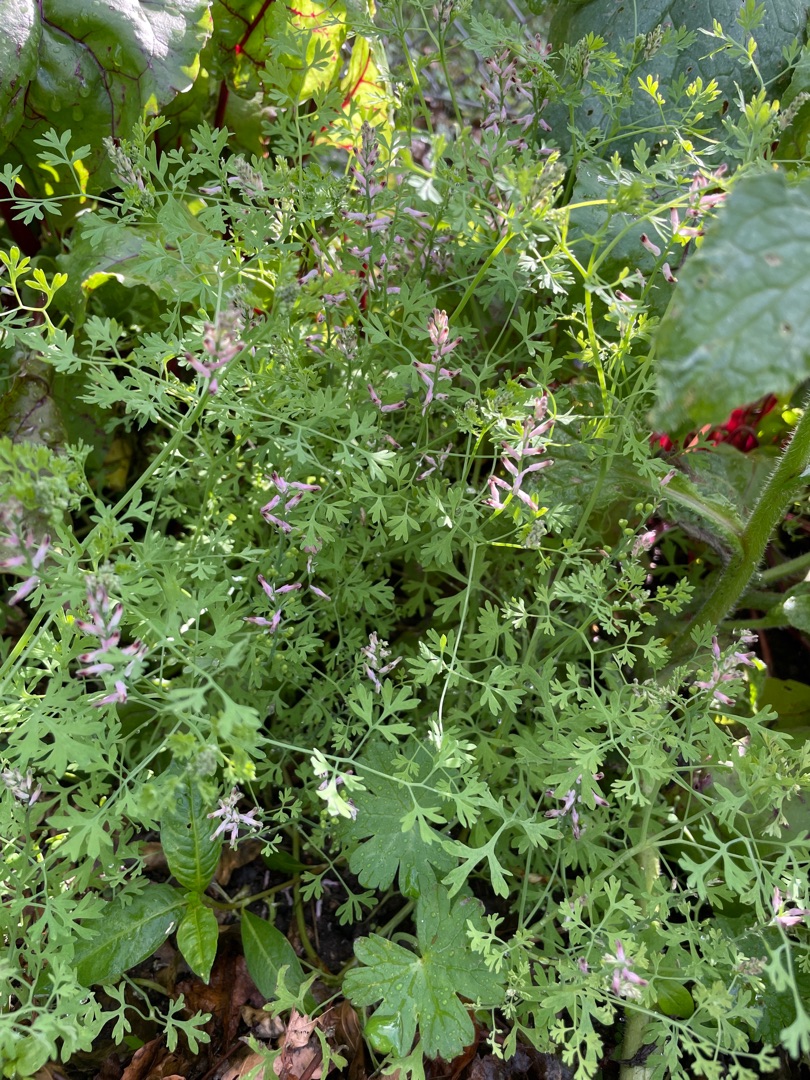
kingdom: Plantae
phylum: Tracheophyta
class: Magnoliopsida
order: Ranunculales
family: Papaveraceae
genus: Fumaria
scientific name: Fumaria officinalis
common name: Læge-jordrøg
